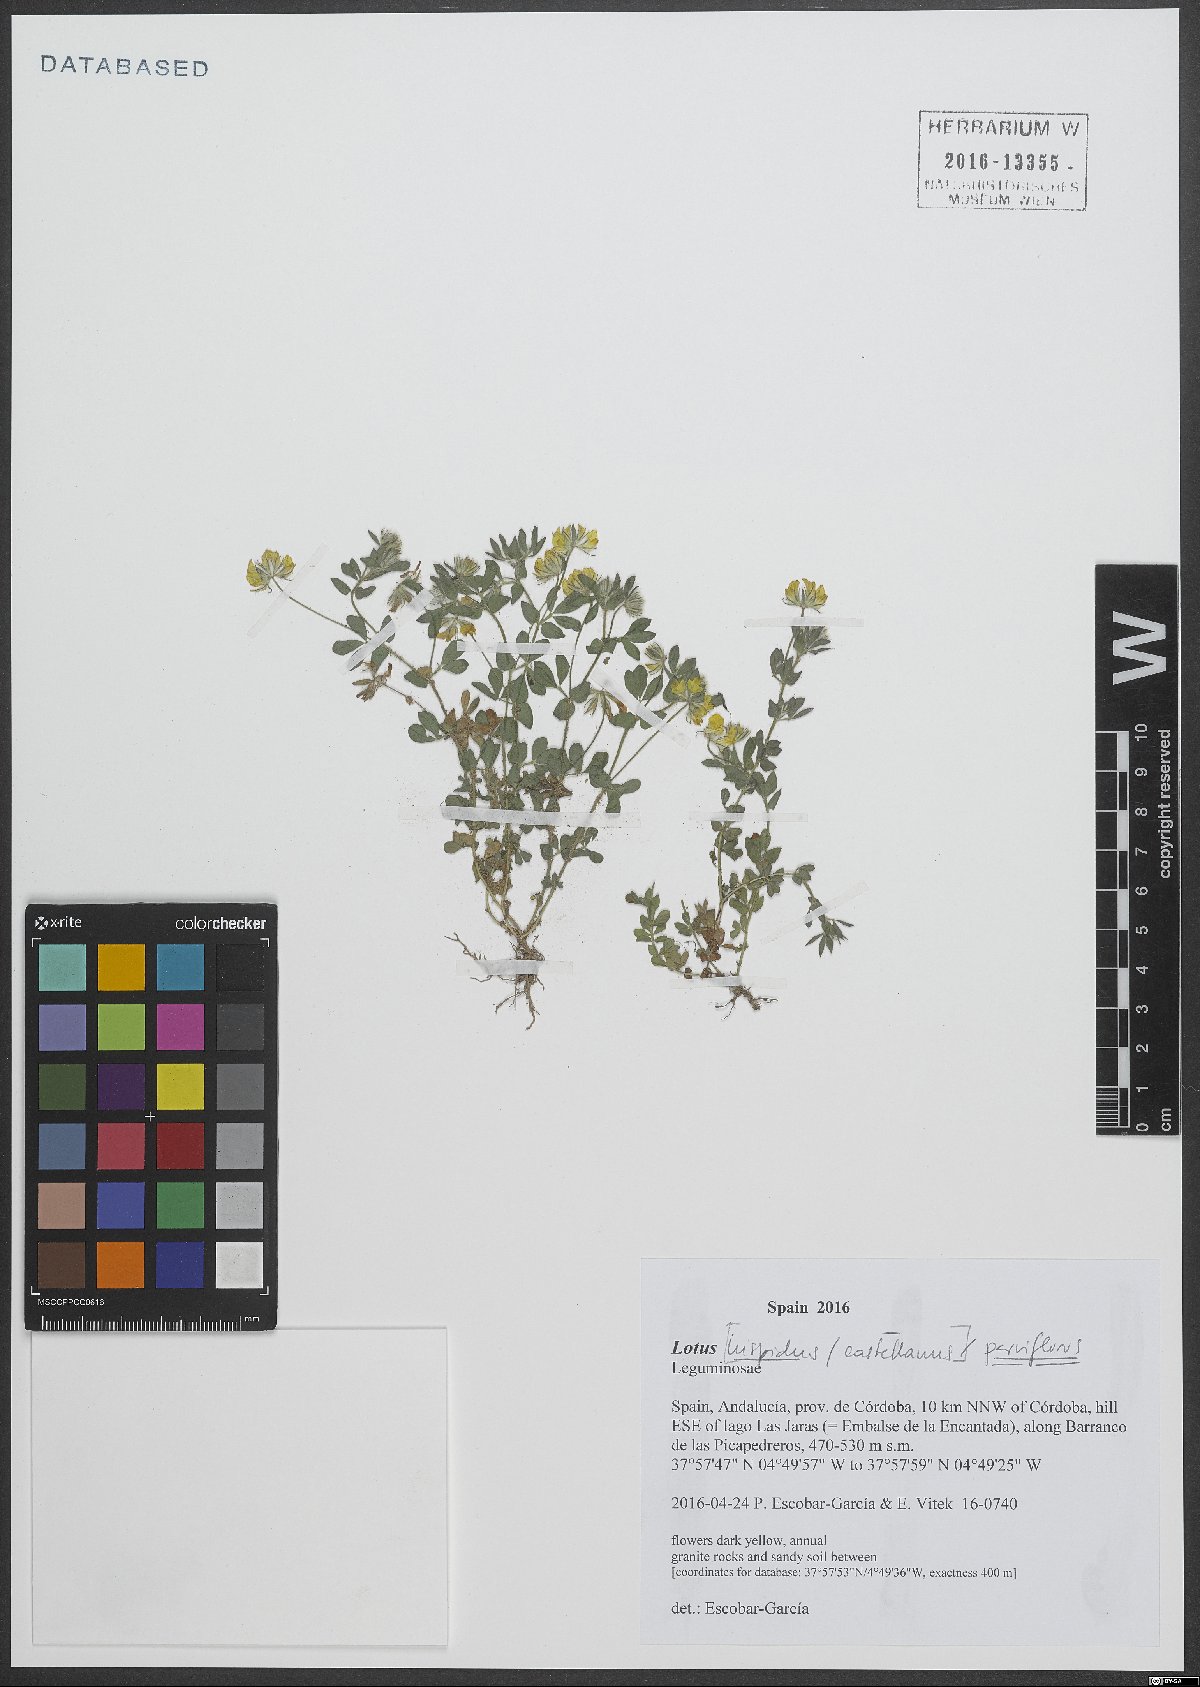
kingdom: Plantae
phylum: Tracheophyta
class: Magnoliopsida
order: Fabales
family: Fabaceae
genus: Lotus
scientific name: Lotus parviflorus
